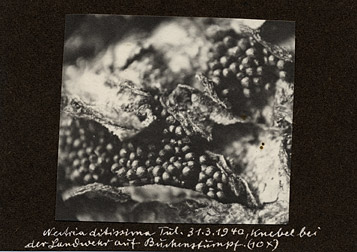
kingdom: Fungi
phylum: Ascomycota
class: Sordariomycetes
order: Hypocreales
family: Nectriaceae
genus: Neonectria
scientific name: Neonectria ditissima
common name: Apple canker
